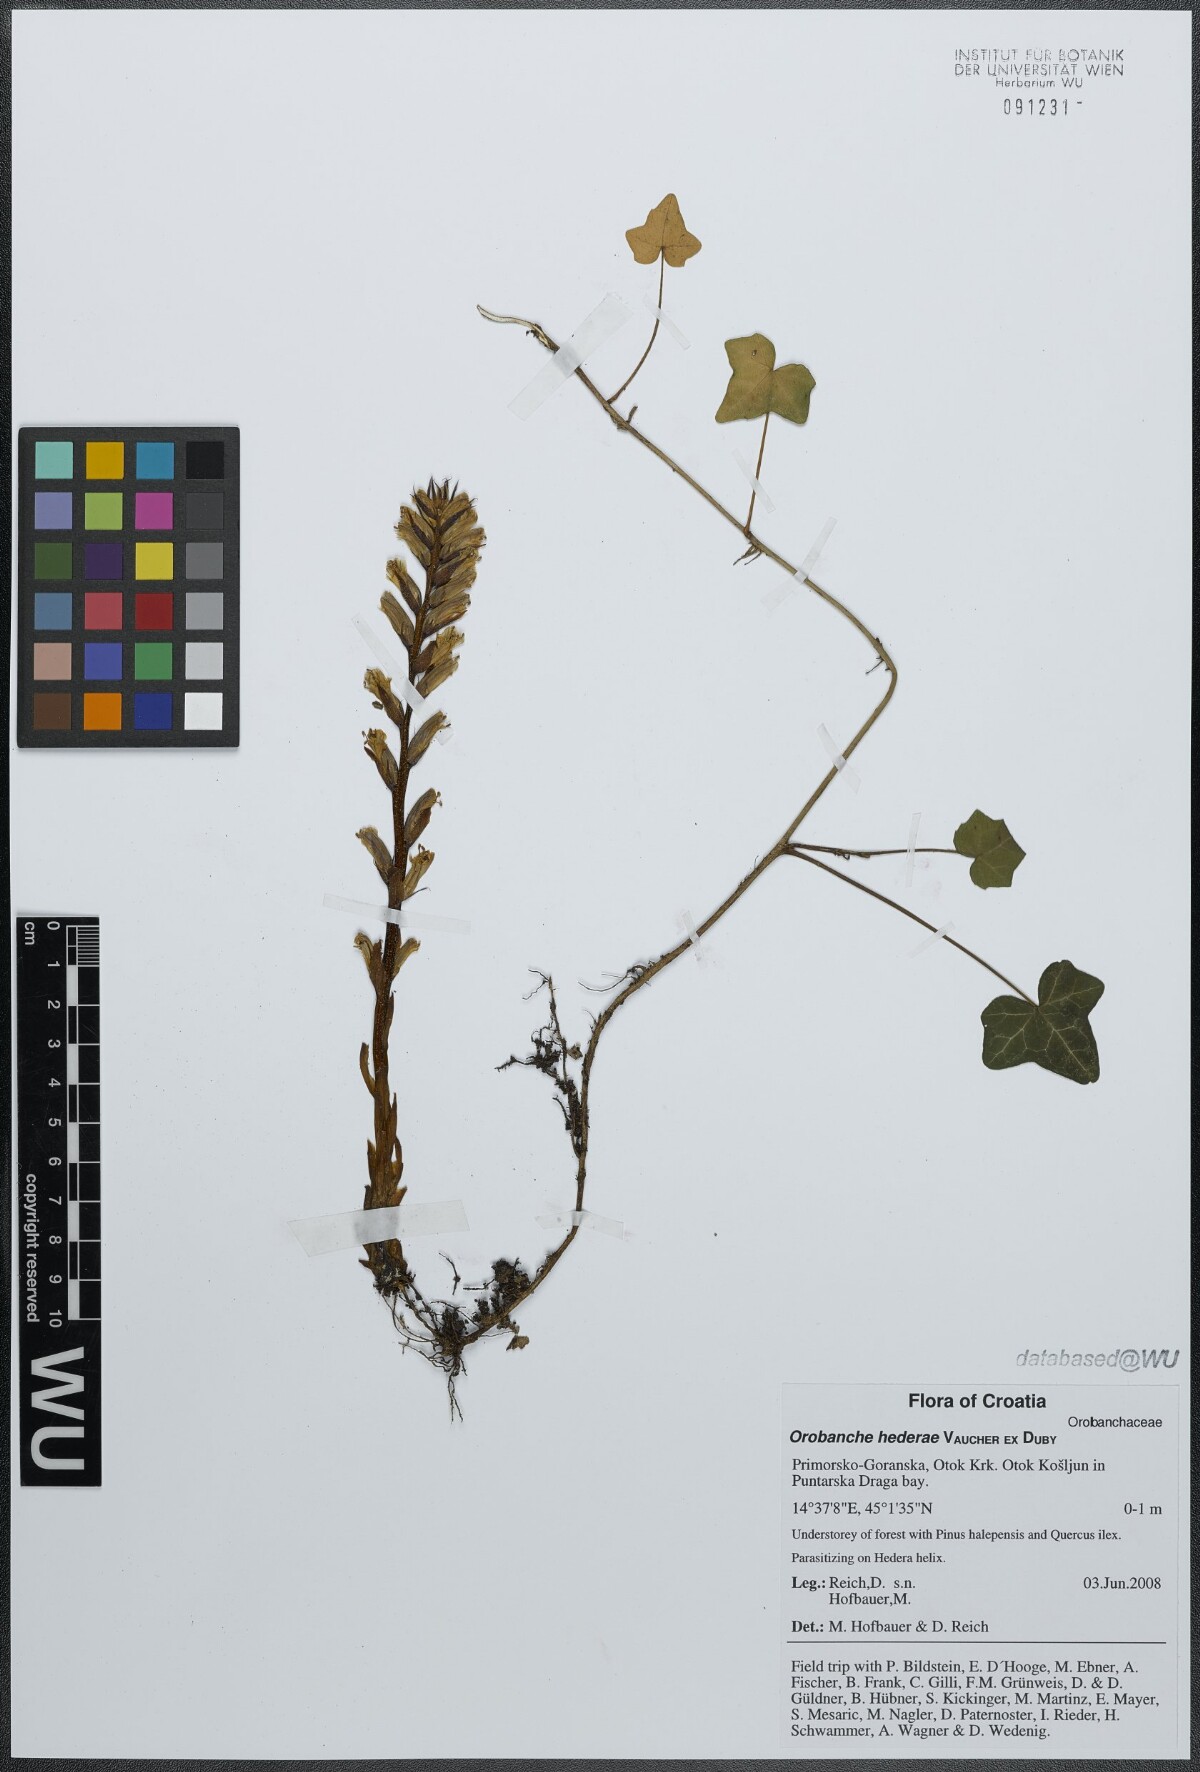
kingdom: Plantae
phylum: Tracheophyta
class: Magnoliopsida
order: Lamiales
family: Orobanchaceae
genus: Orobanche
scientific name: Orobanche hederae
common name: Ivy broomrape
